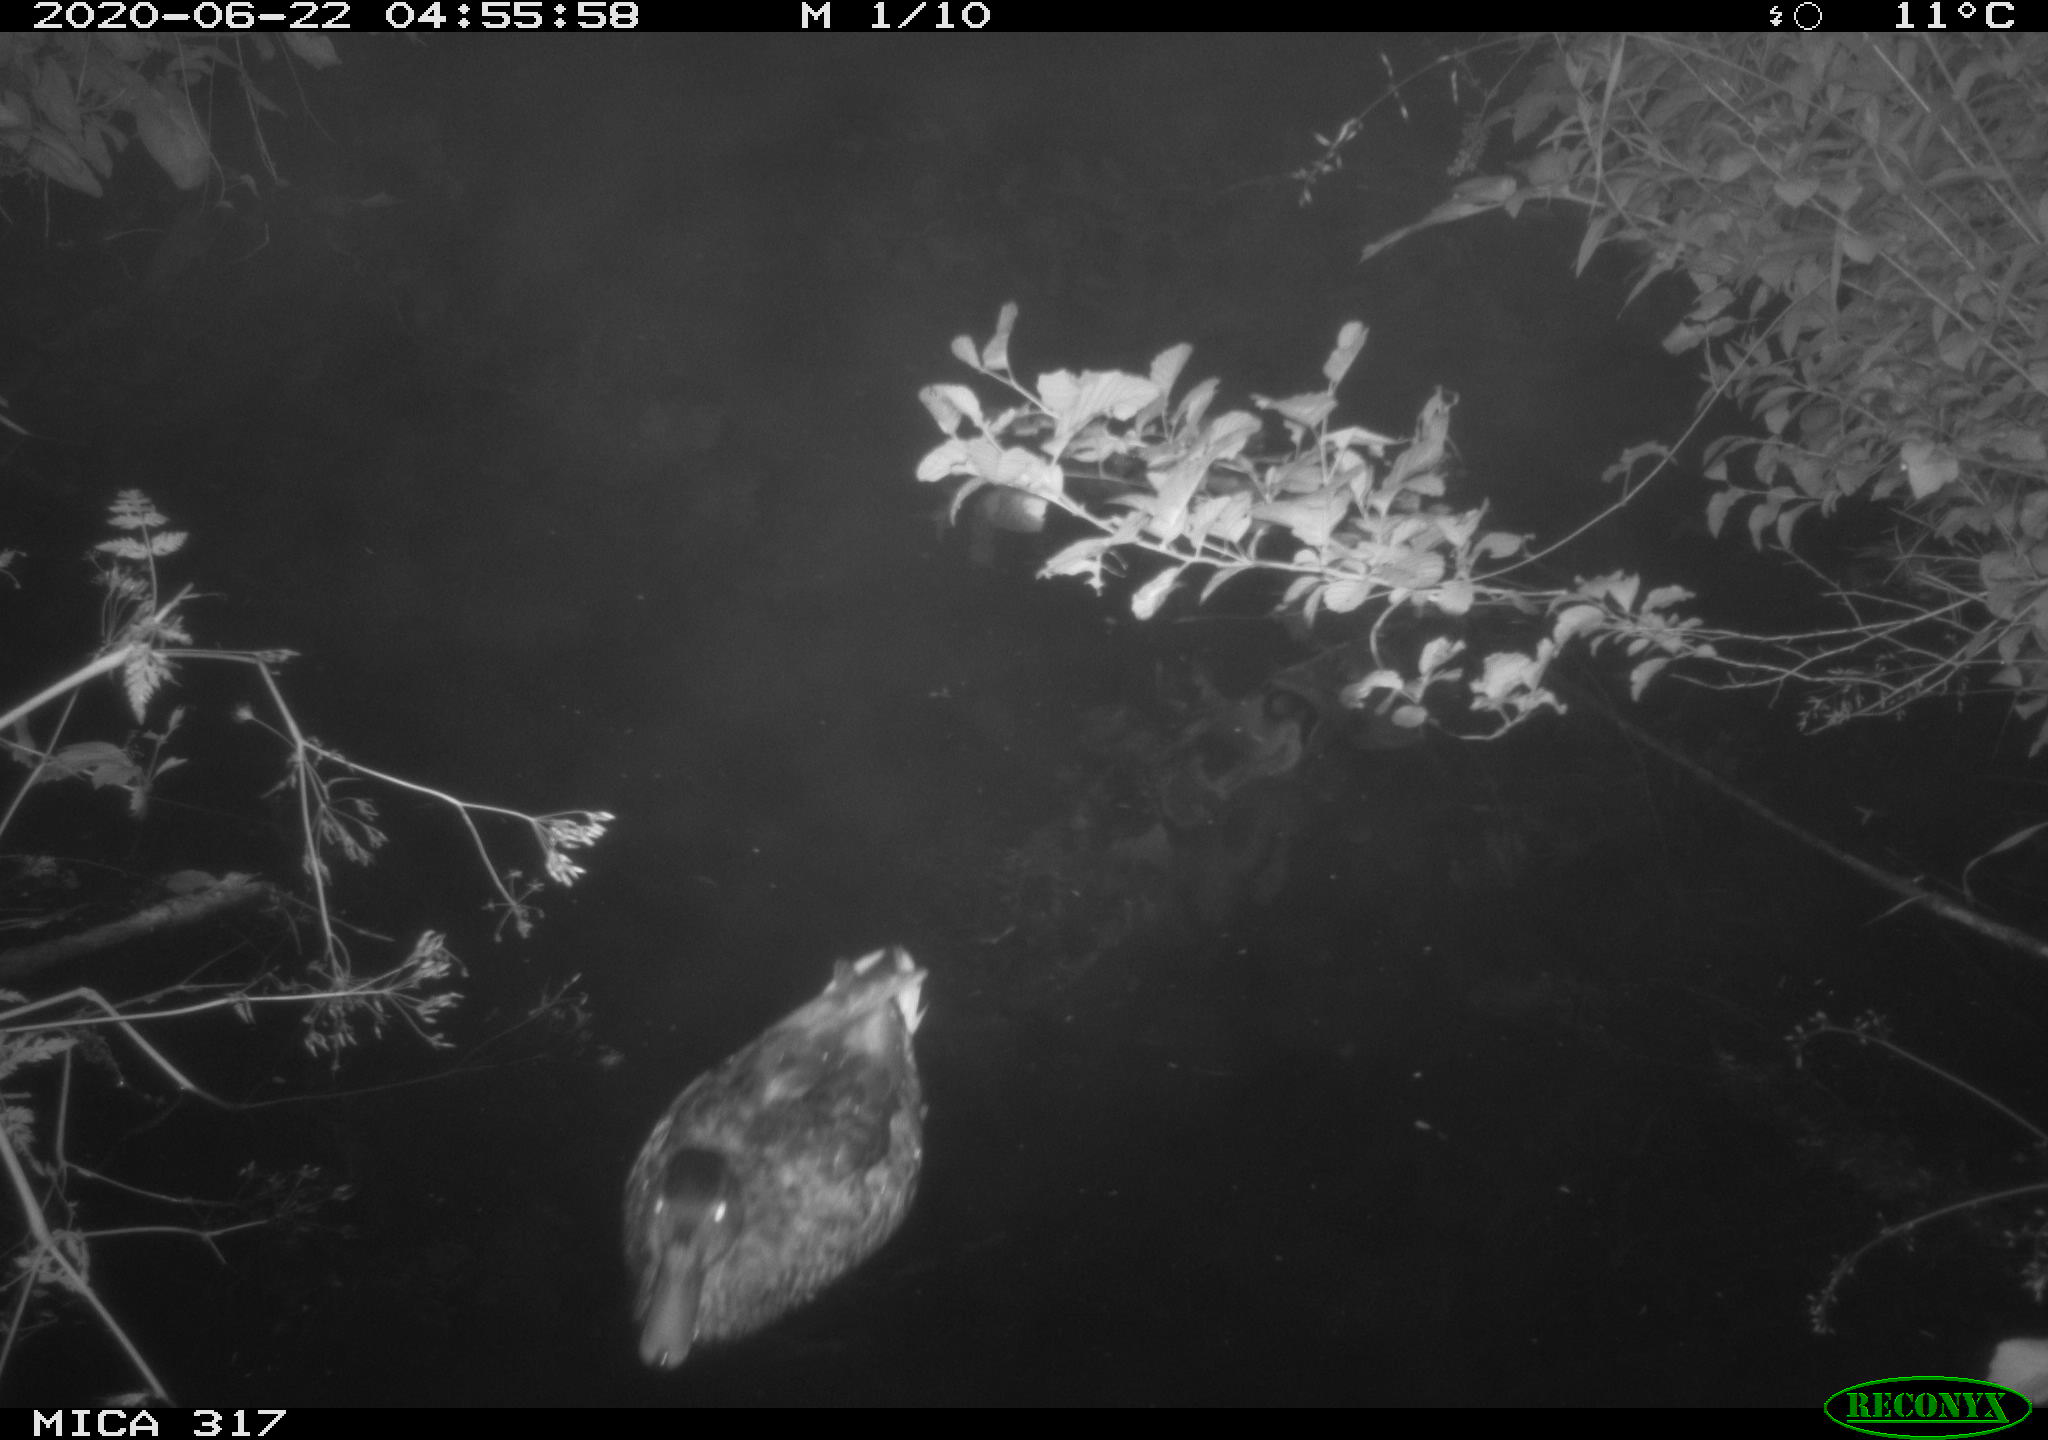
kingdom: Animalia
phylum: Chordata
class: Aves
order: Anseriformes
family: Anatidae
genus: Anas
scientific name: Anas platyrhynchos
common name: Mallard
